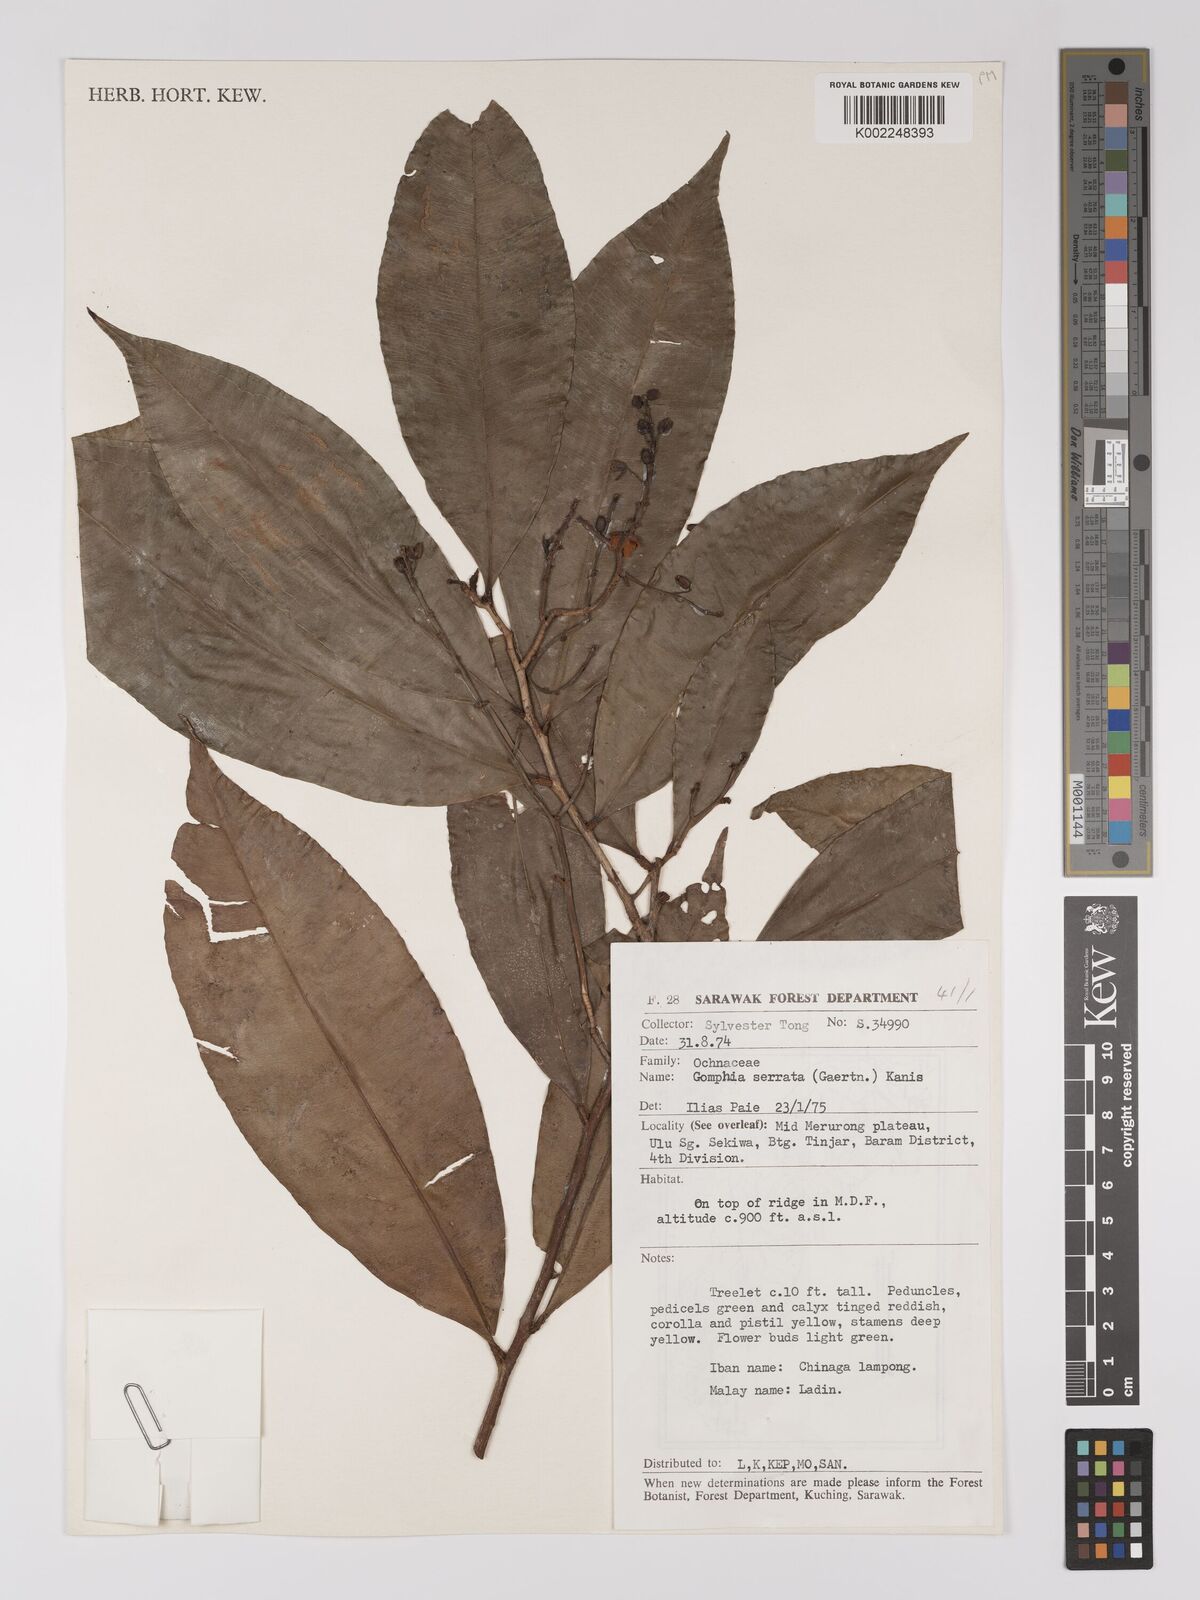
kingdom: Plantae
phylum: Tracheophyta
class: Magnoliopsida
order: Malpighiales
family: Ochnaceae
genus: Gomphia
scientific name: Gomphia serrata
